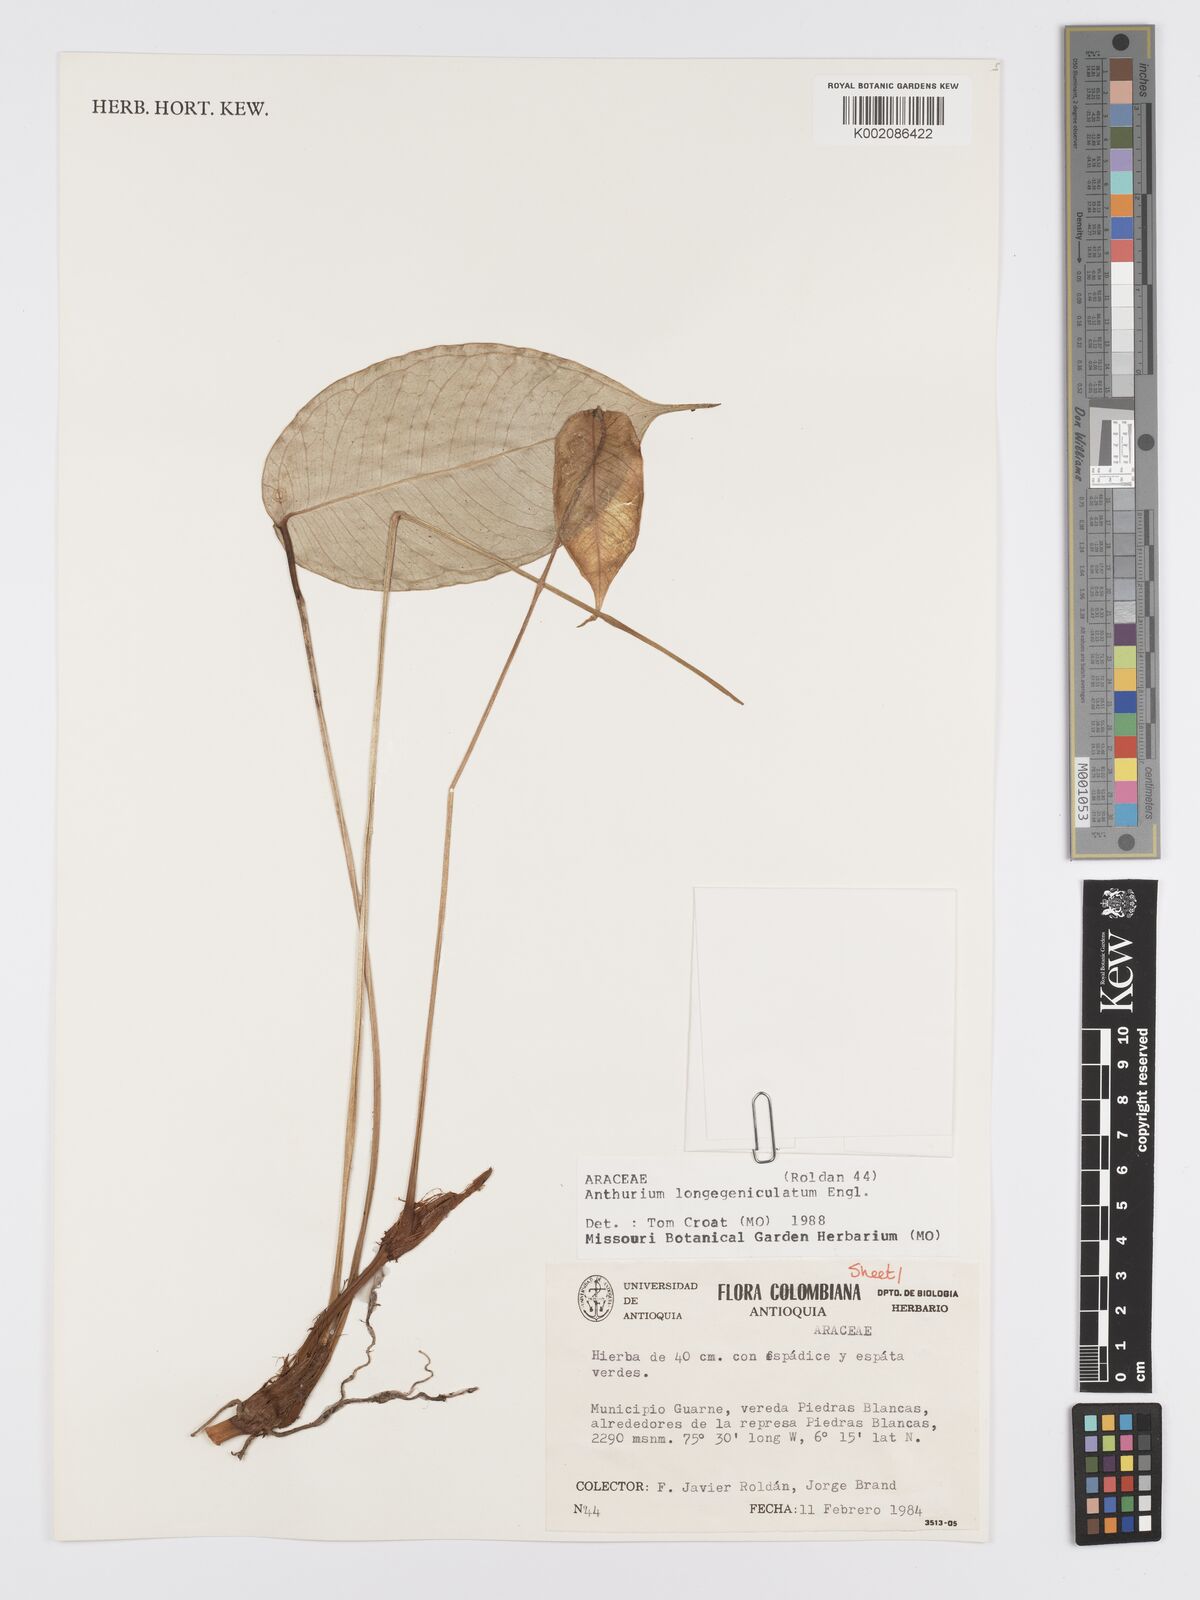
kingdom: Plantae
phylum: Tracheophyta
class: Liliopsida
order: Alismatales
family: Araceae
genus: Anthurium
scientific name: Anthurium longegeniculatum
